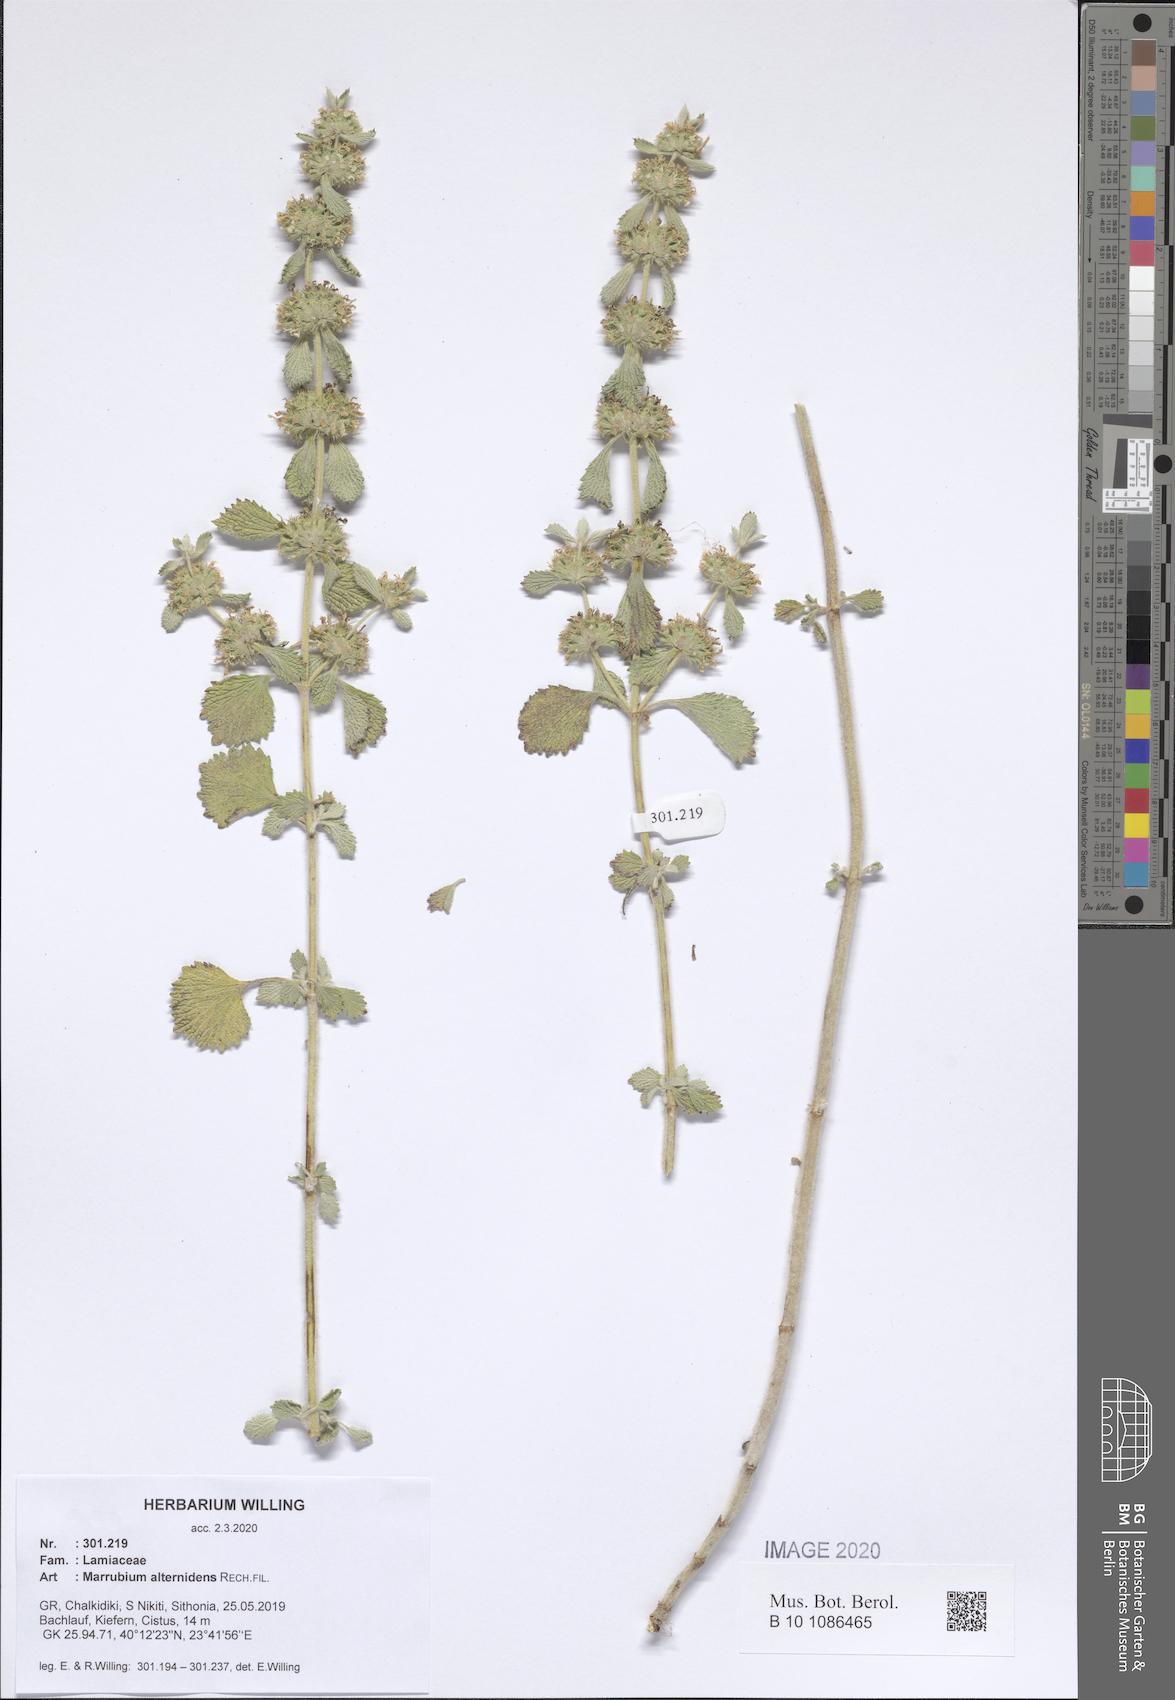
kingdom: Plantae
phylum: Tracheophyta
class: Magnoliopsida
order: Lamiales
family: Lamiaceae
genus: Marrubium
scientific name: Marrubium vulgare
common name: Horehound
